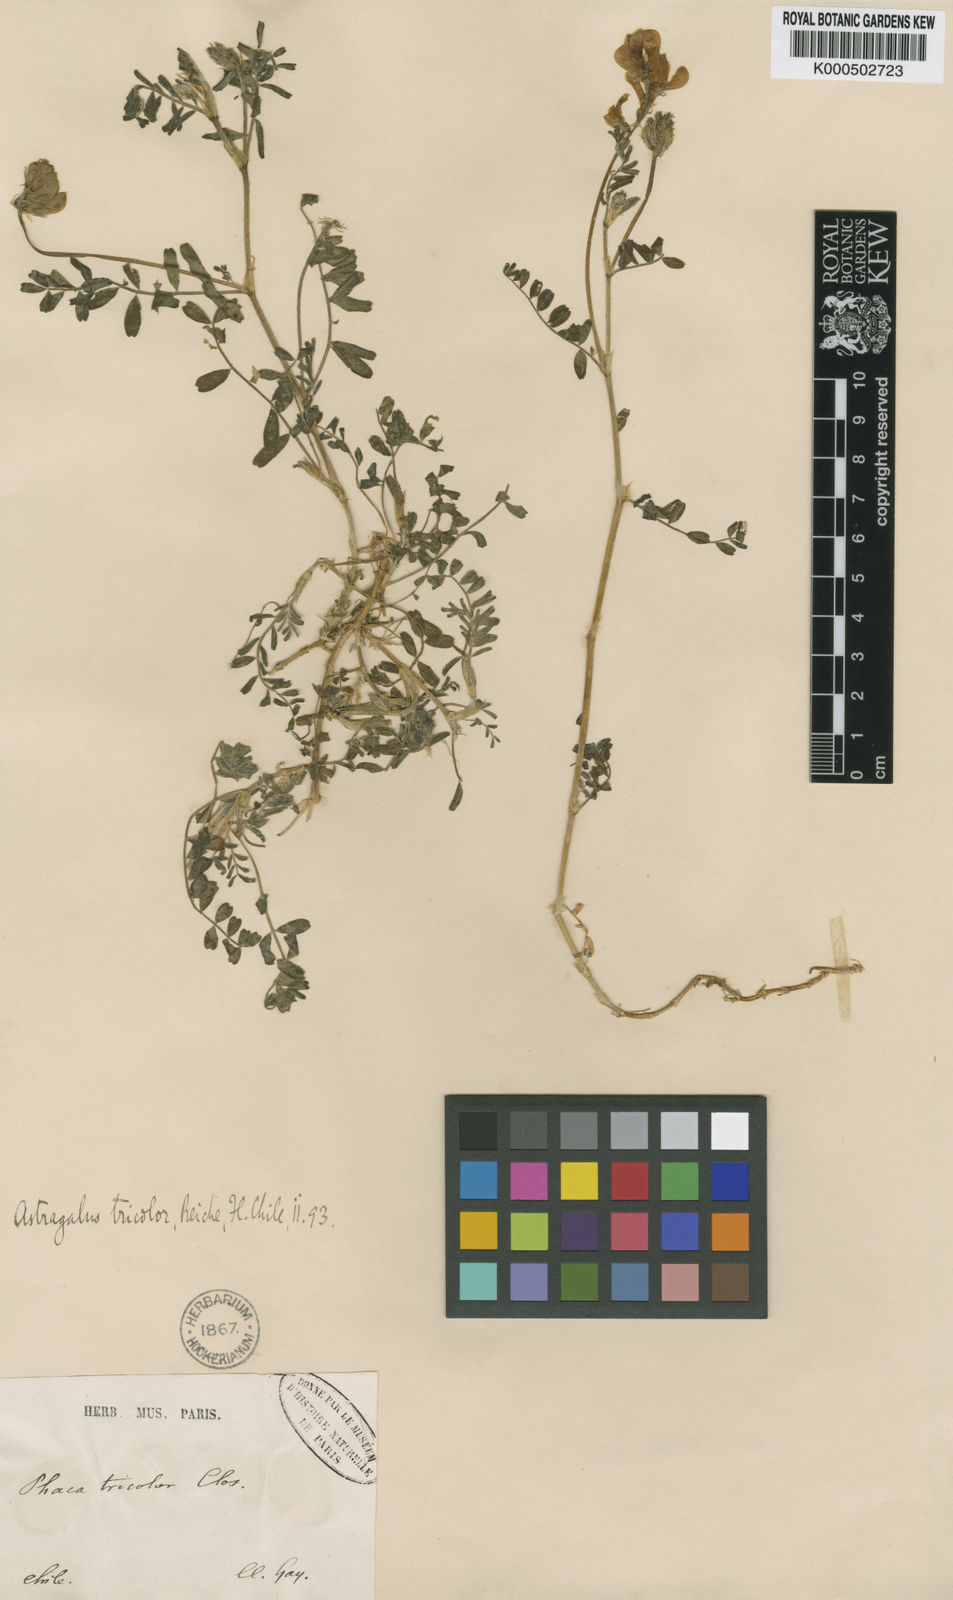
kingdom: Plantae
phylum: Tracheophyta
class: Magnoliopsida
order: Fabales
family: Fabaceae
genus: Astragalus
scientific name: Astragalus
